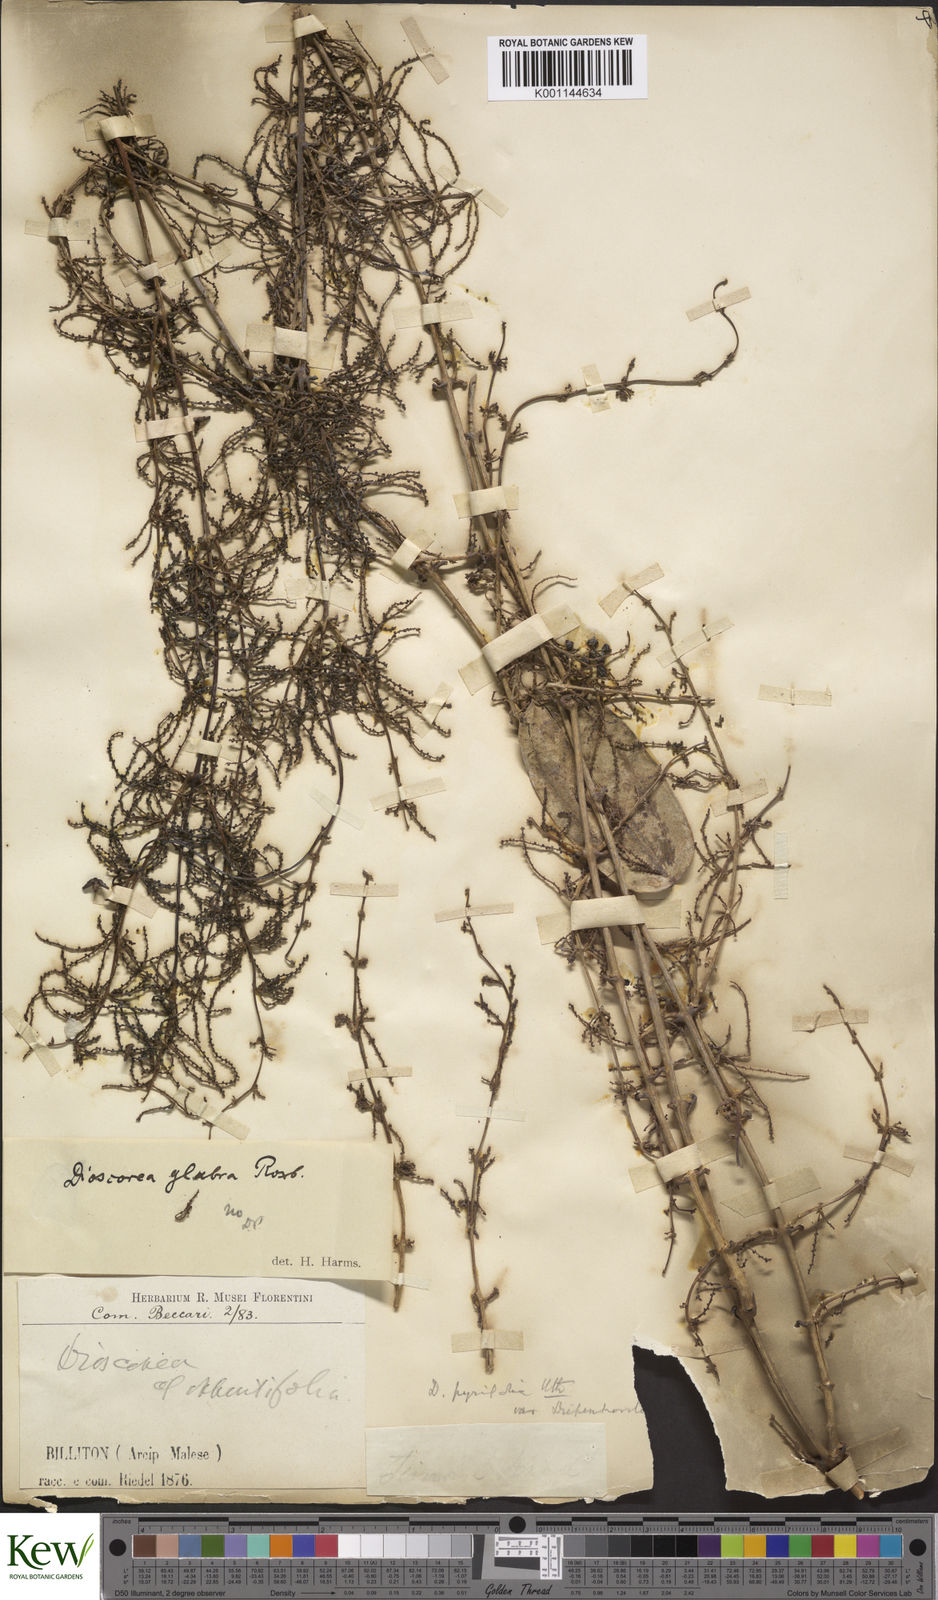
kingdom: Plantae
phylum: Tracheophyta
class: Liliopsida
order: Dioscoreales
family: Dioscoreaceae
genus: Dioscorea
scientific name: Dioscorea pyrifolia
